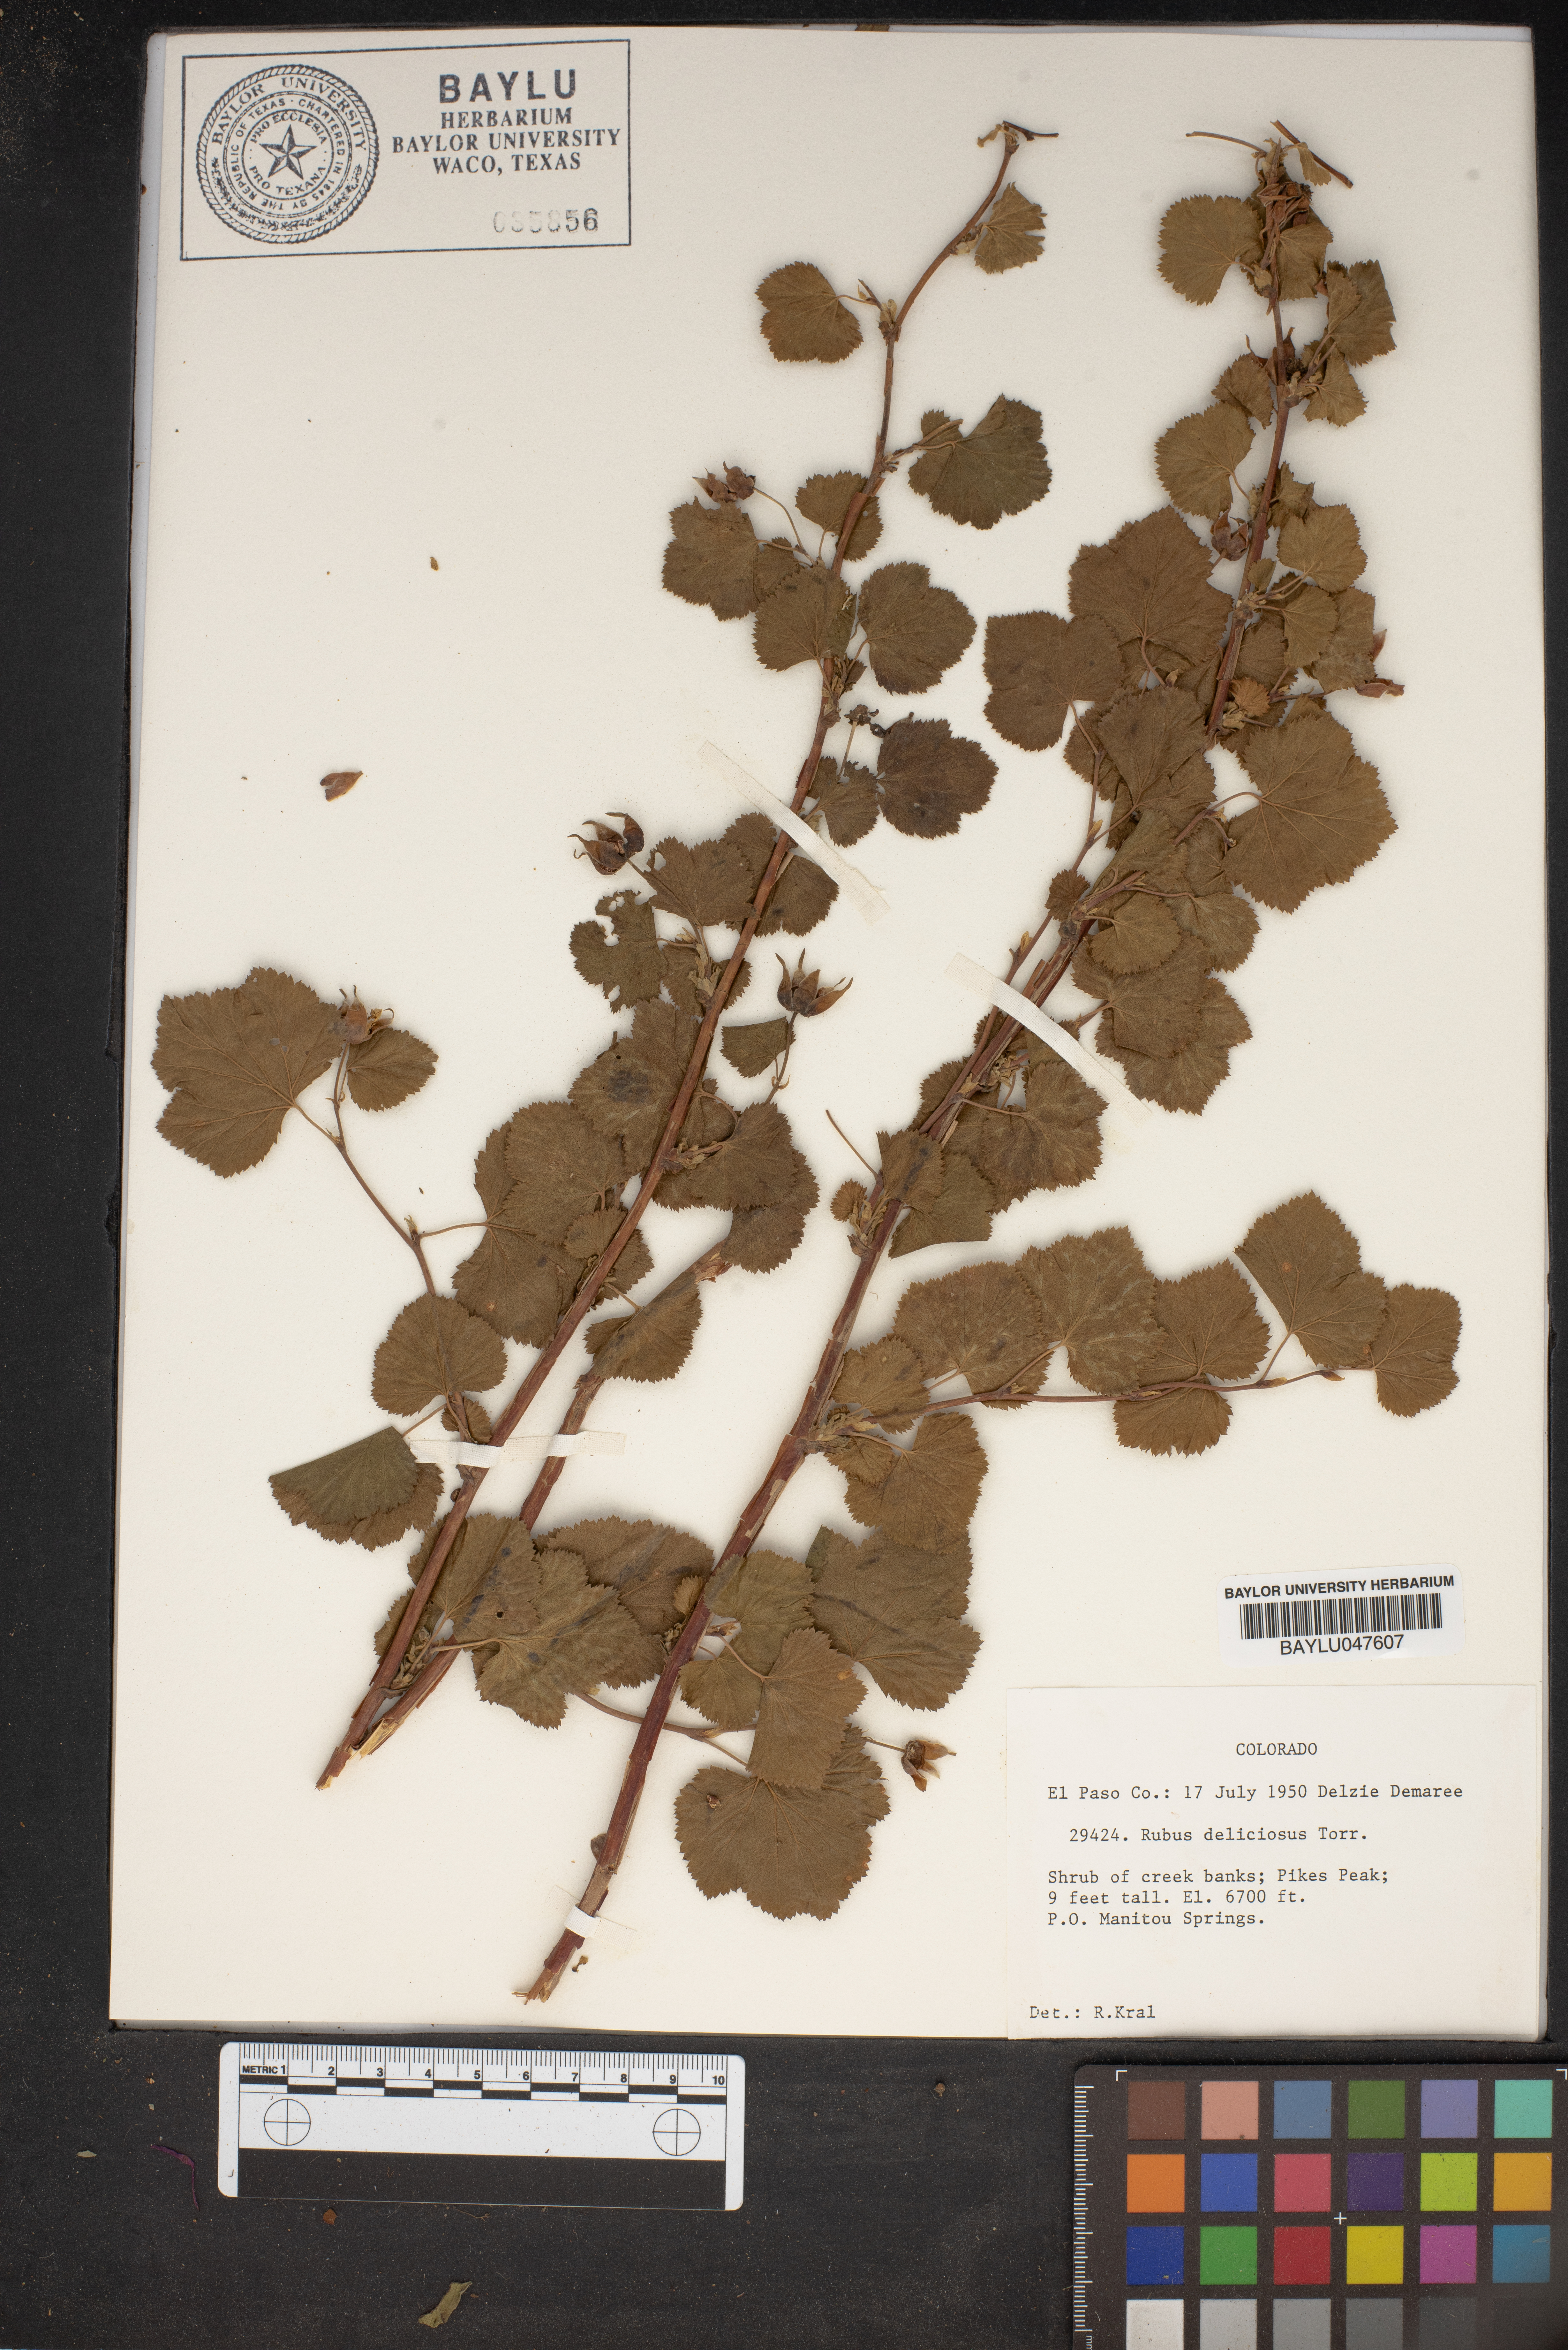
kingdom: Plantae
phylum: Tracheophyta
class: Magnoliopsida
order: Rosales
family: Rosaceae
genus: Rubus
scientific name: Rubus deliciosus
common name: Rocky mountain raspberry
